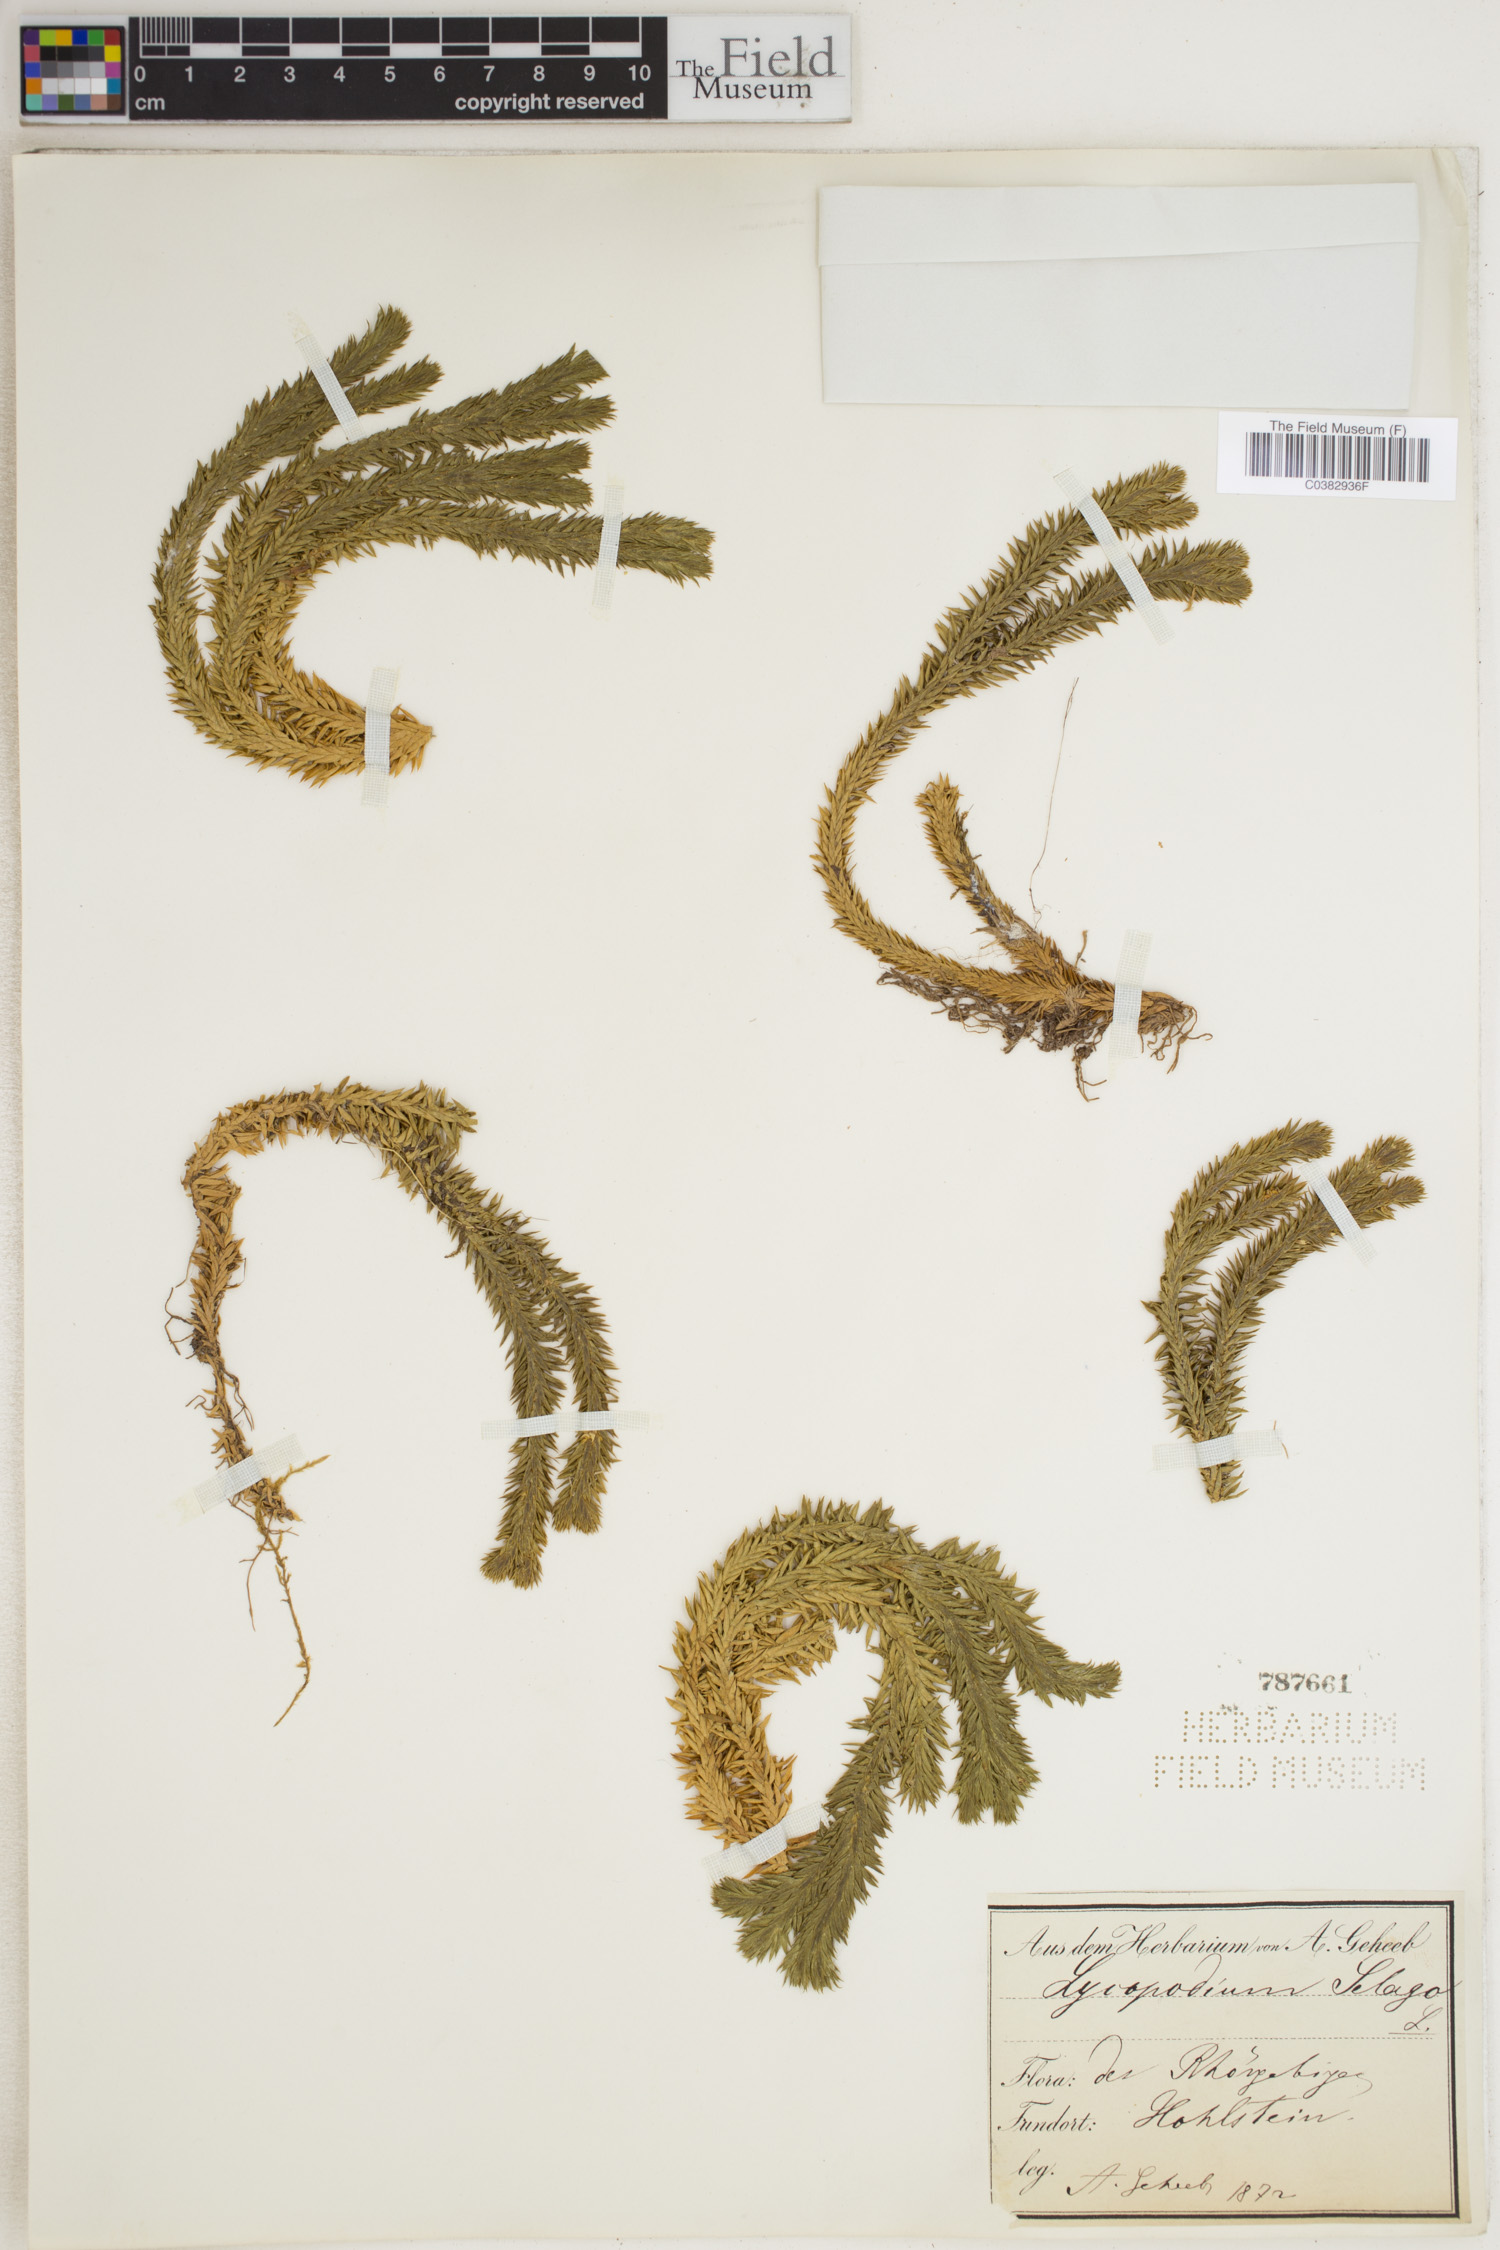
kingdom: Plantae
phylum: Tracheophyta
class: Lycopodiopsida
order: Lycopodiales
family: Lycopodiaceae
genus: Huperzia
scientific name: Huperzia selago
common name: Northern firmoss
